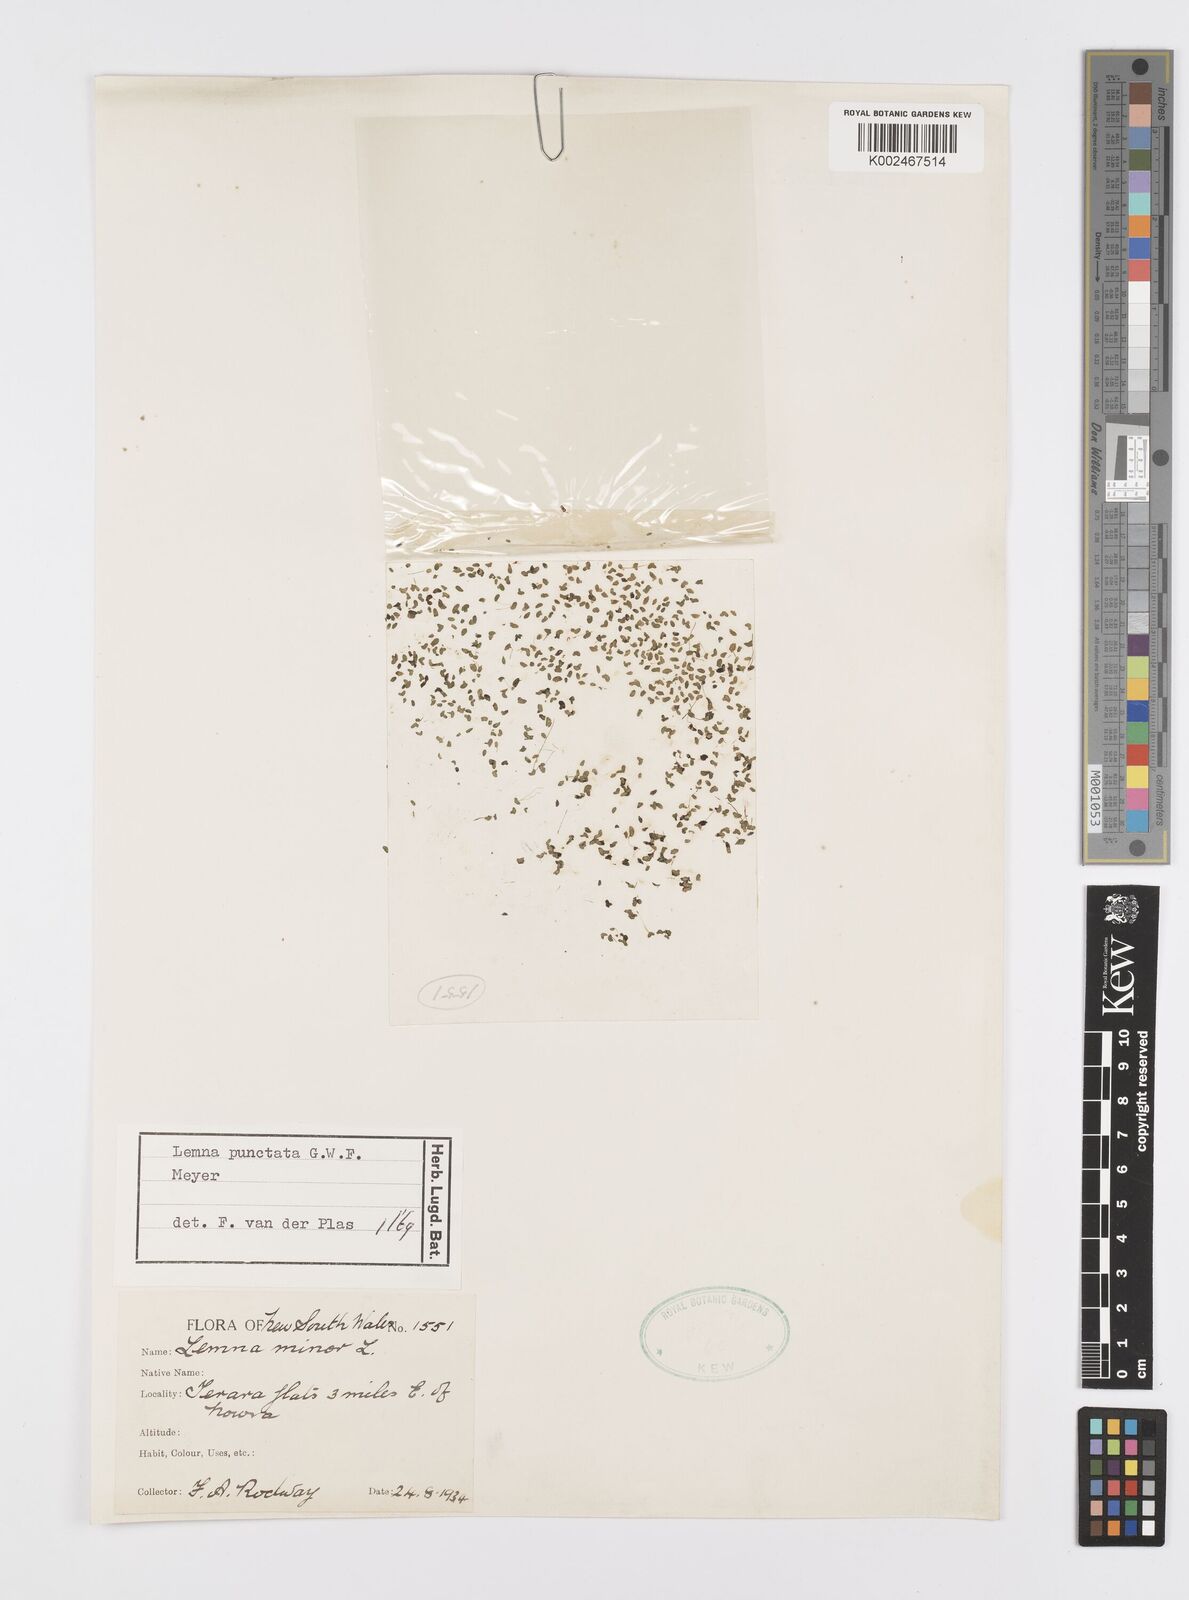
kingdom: Plantae
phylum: Tracheophyta
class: Liliopsida
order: Alismatales
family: Araceae
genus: Spirodela
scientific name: Spirodela punctata
